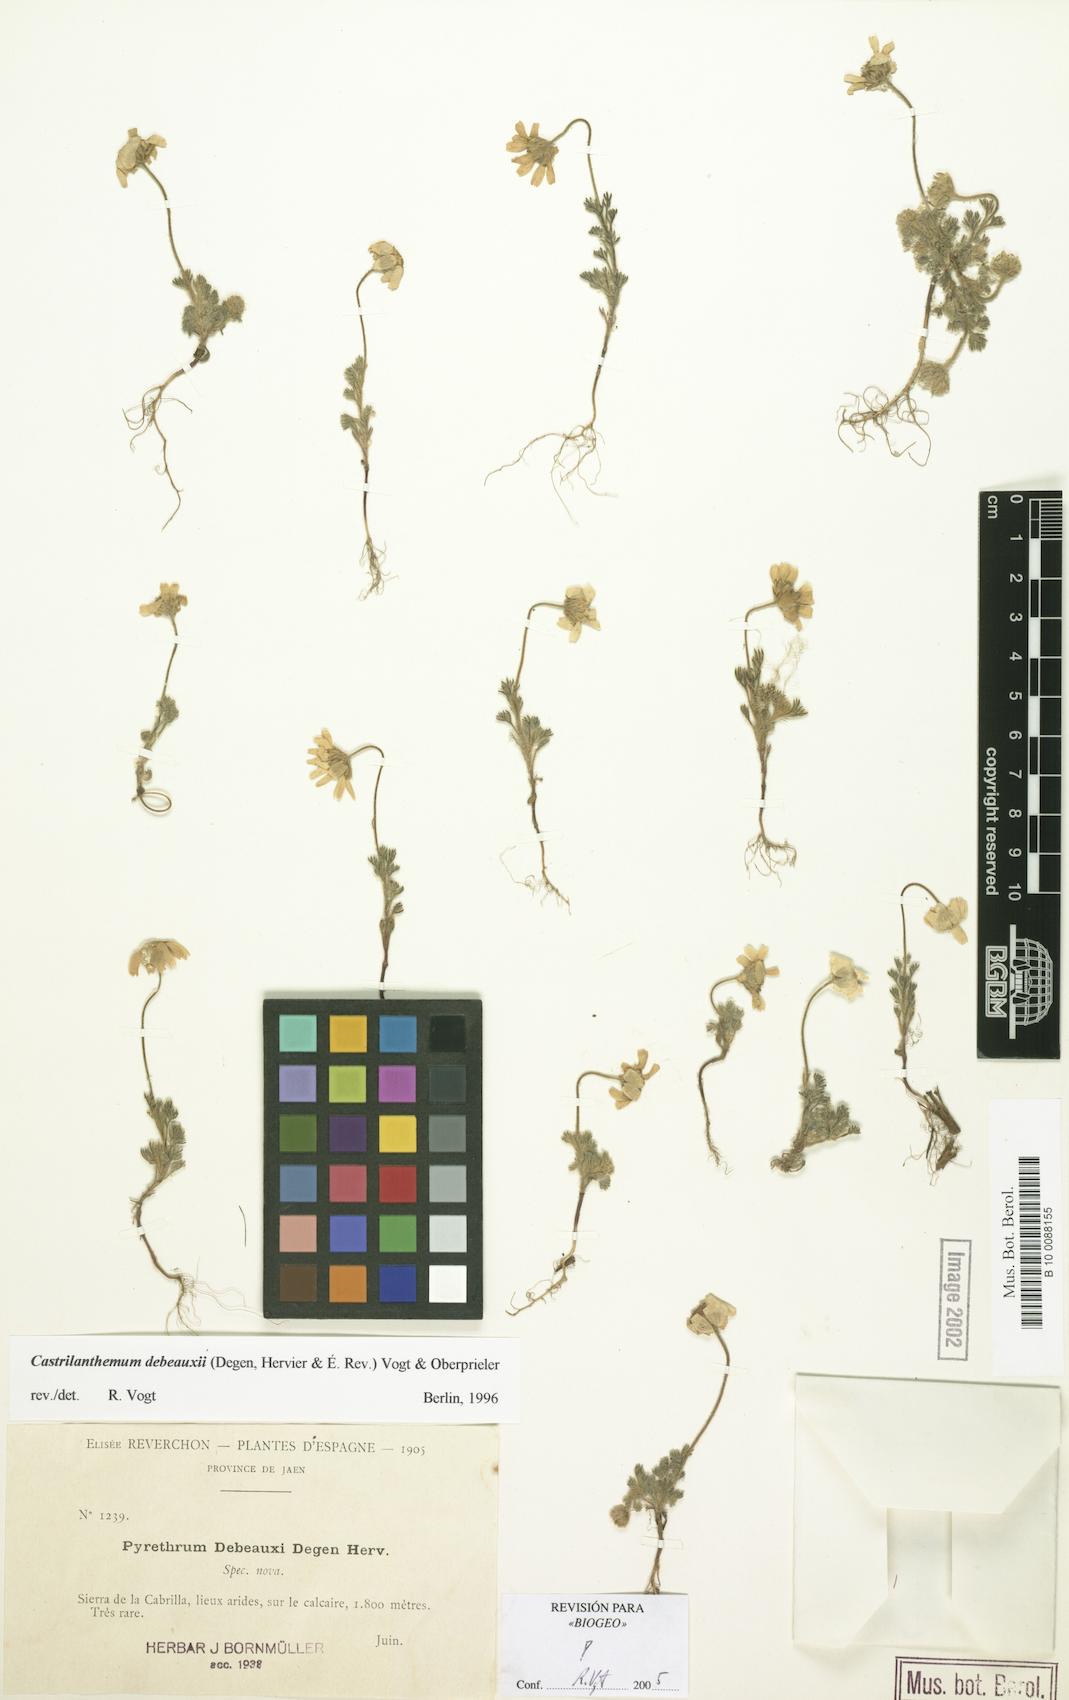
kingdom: Plantae
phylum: Tracheophyta
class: Magnoliopsida
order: Asterales
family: Asteraceae
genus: Castrilanthemum
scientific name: Castrilanthemum debeauxii
